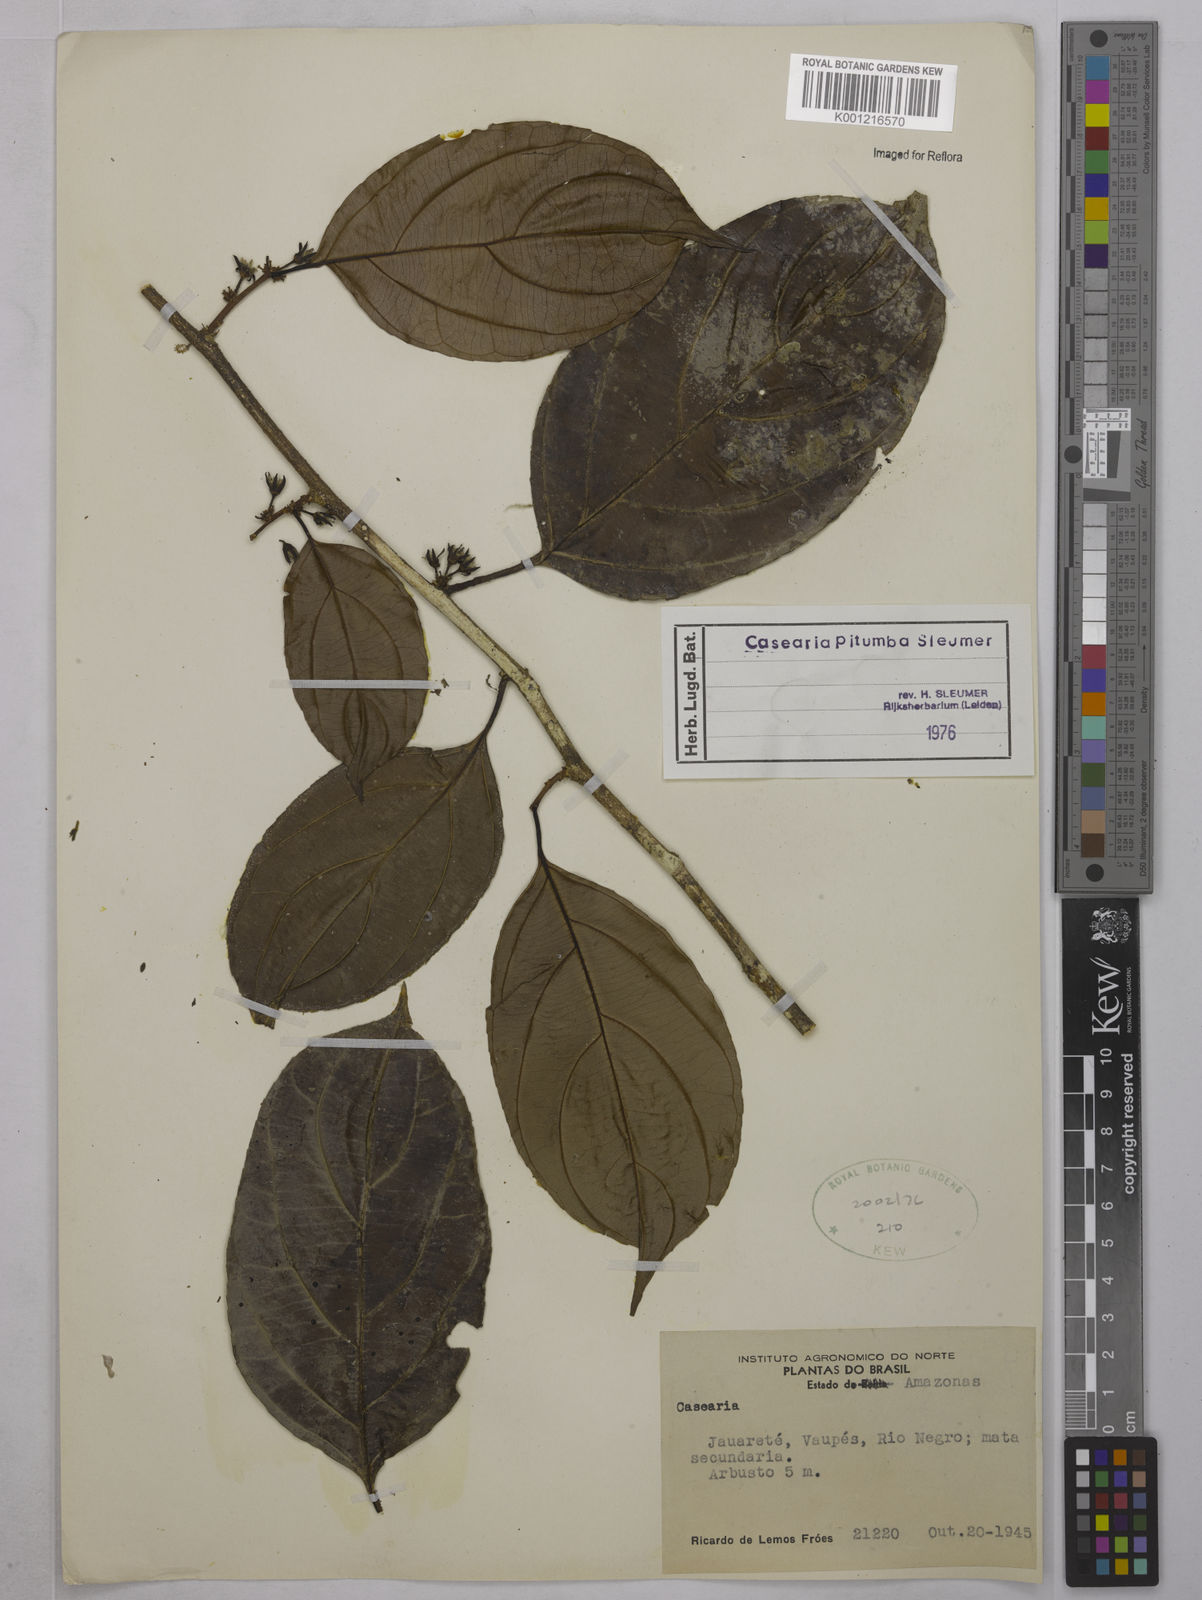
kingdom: Plantae
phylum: Tracheophyta
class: Magnoliopsida
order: Malpighiales
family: Salicaceae
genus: Casearia
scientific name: Casearia pitumba
